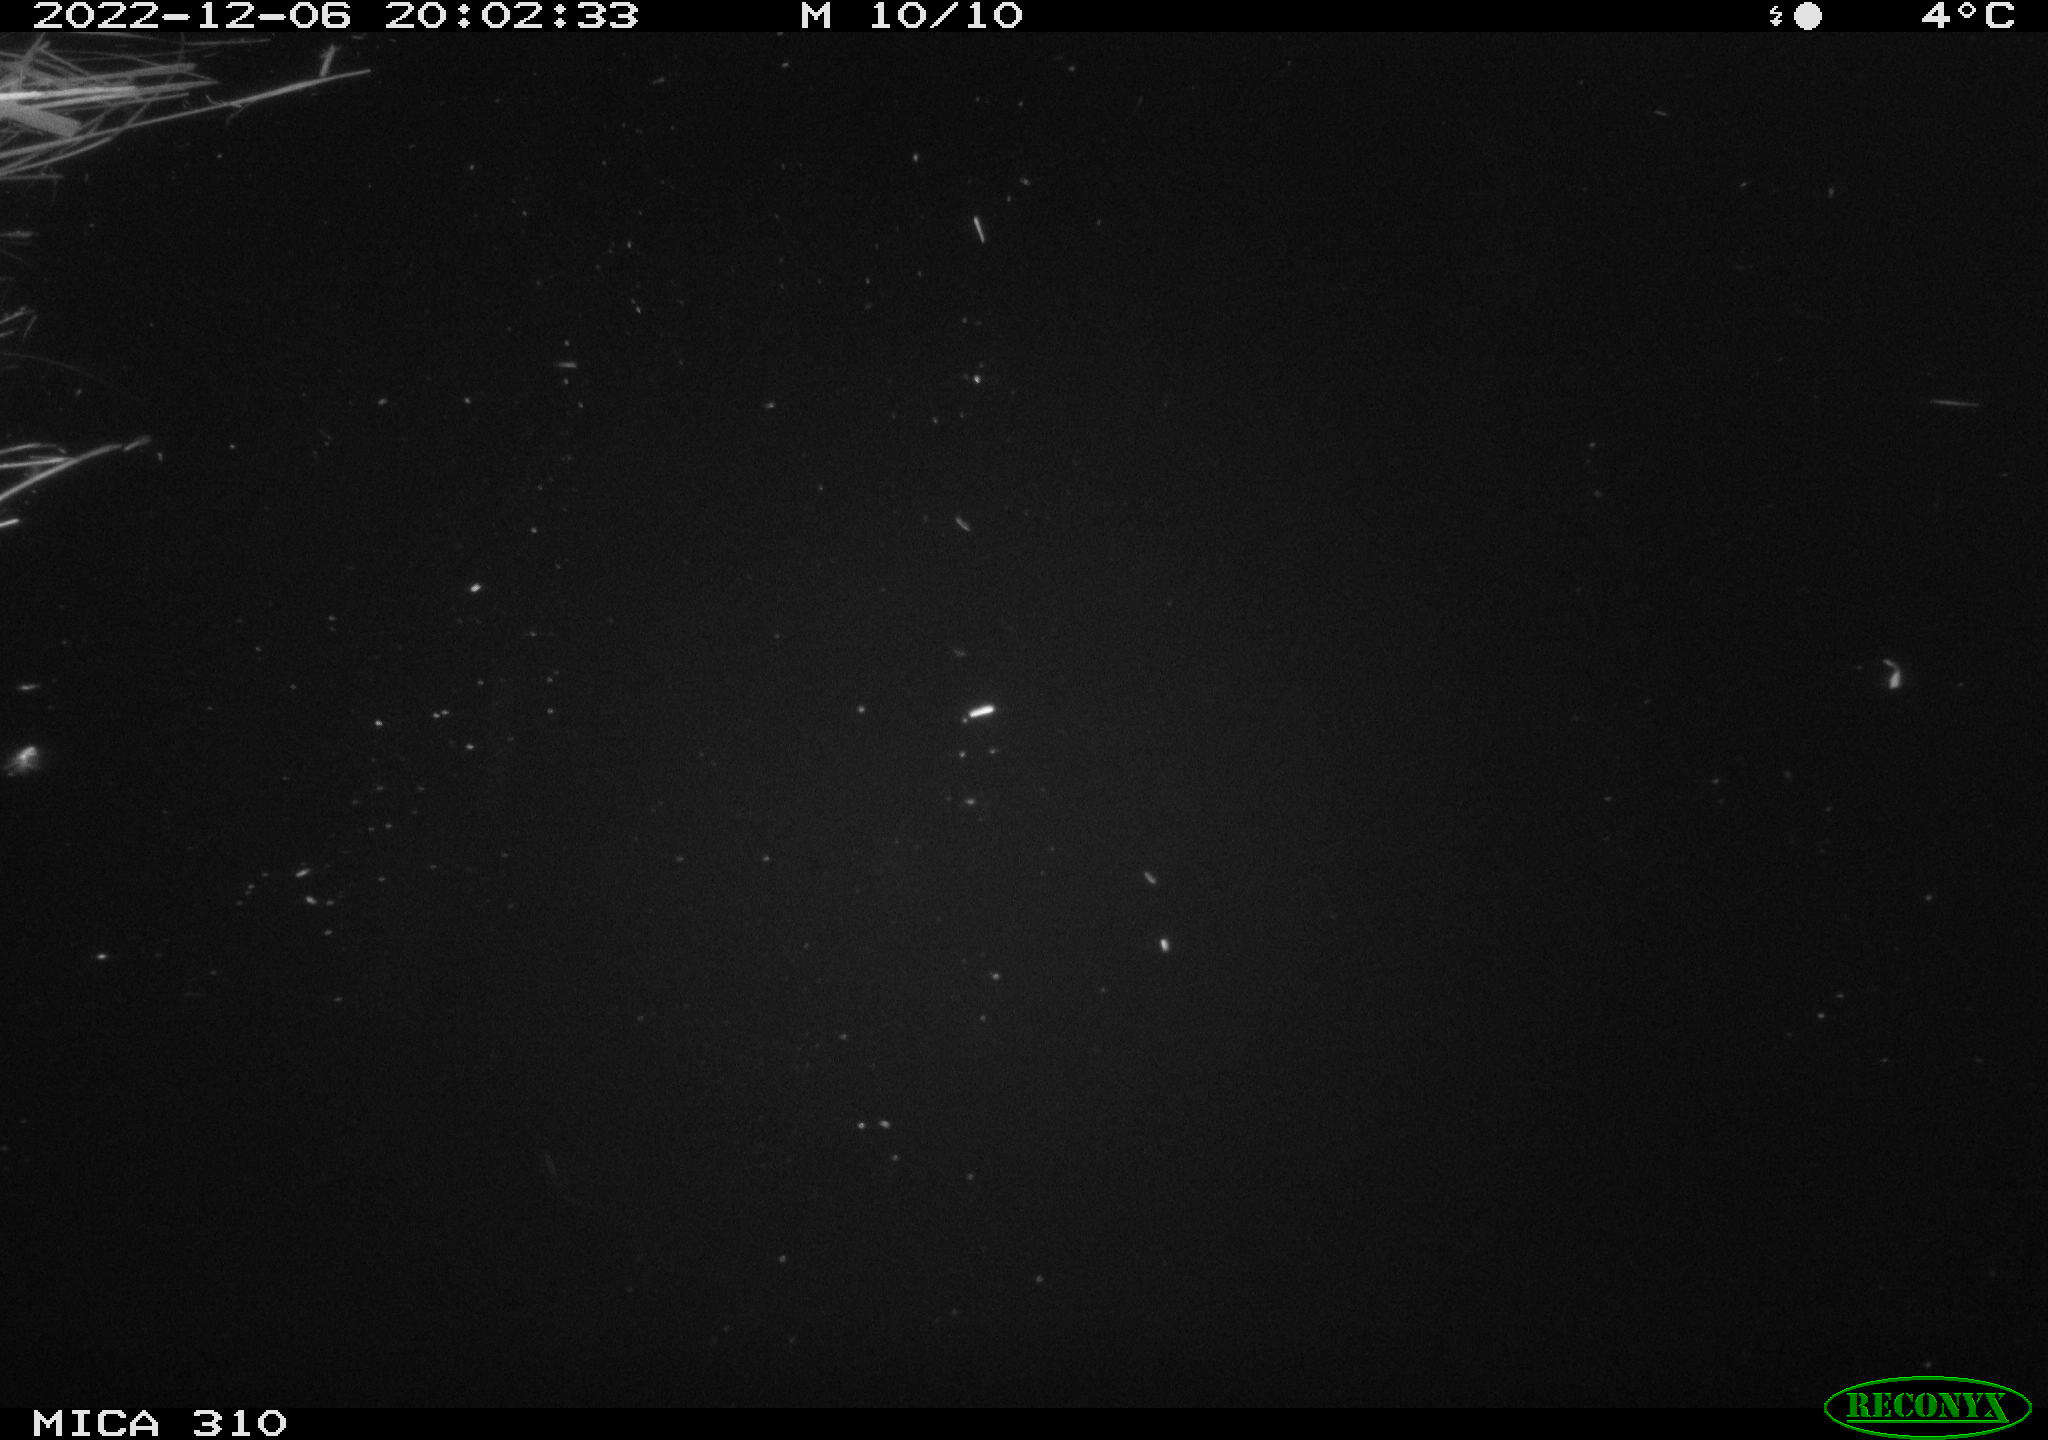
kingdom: Animalia
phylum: Chordata
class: Aves
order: Anseriformes
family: Anatidae
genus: Anas
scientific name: Anas
